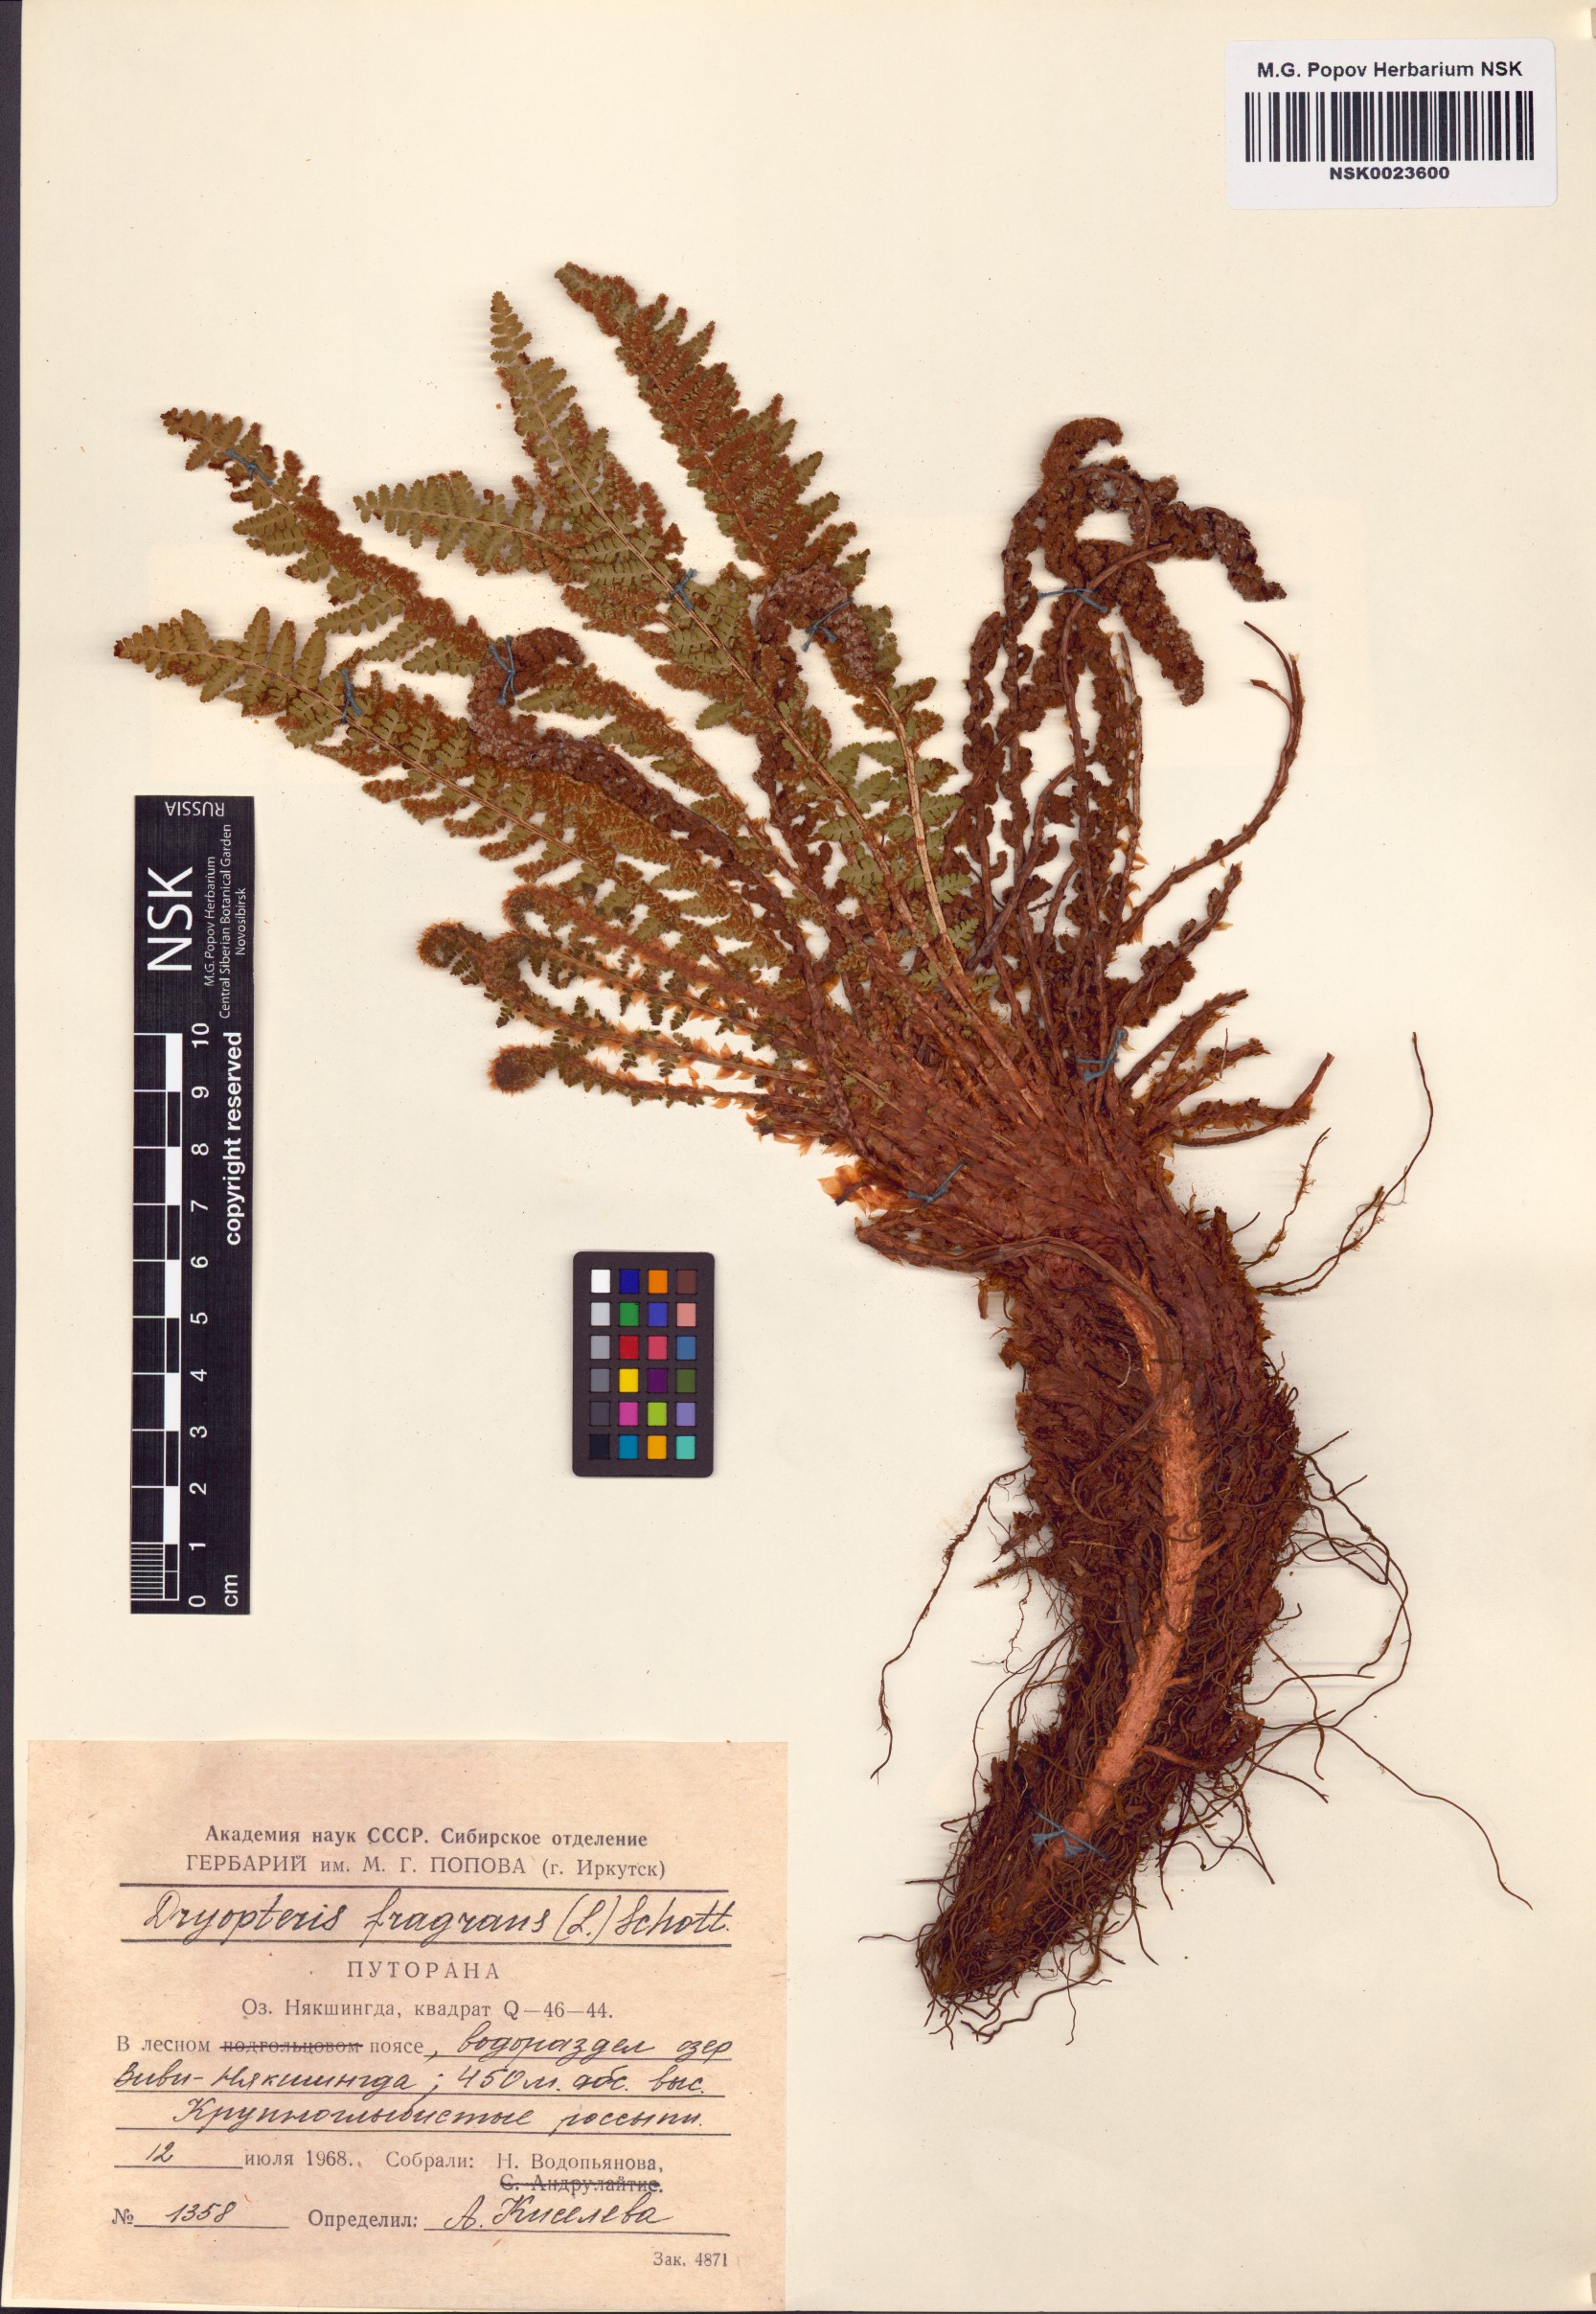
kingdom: Plantae
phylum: Tracheophyta
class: Polypodiopsida
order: Polypodiales
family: Dryopteridaceae
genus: Dryopteris
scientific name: Dryopteris fragrans
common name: Fragrant wood fern
